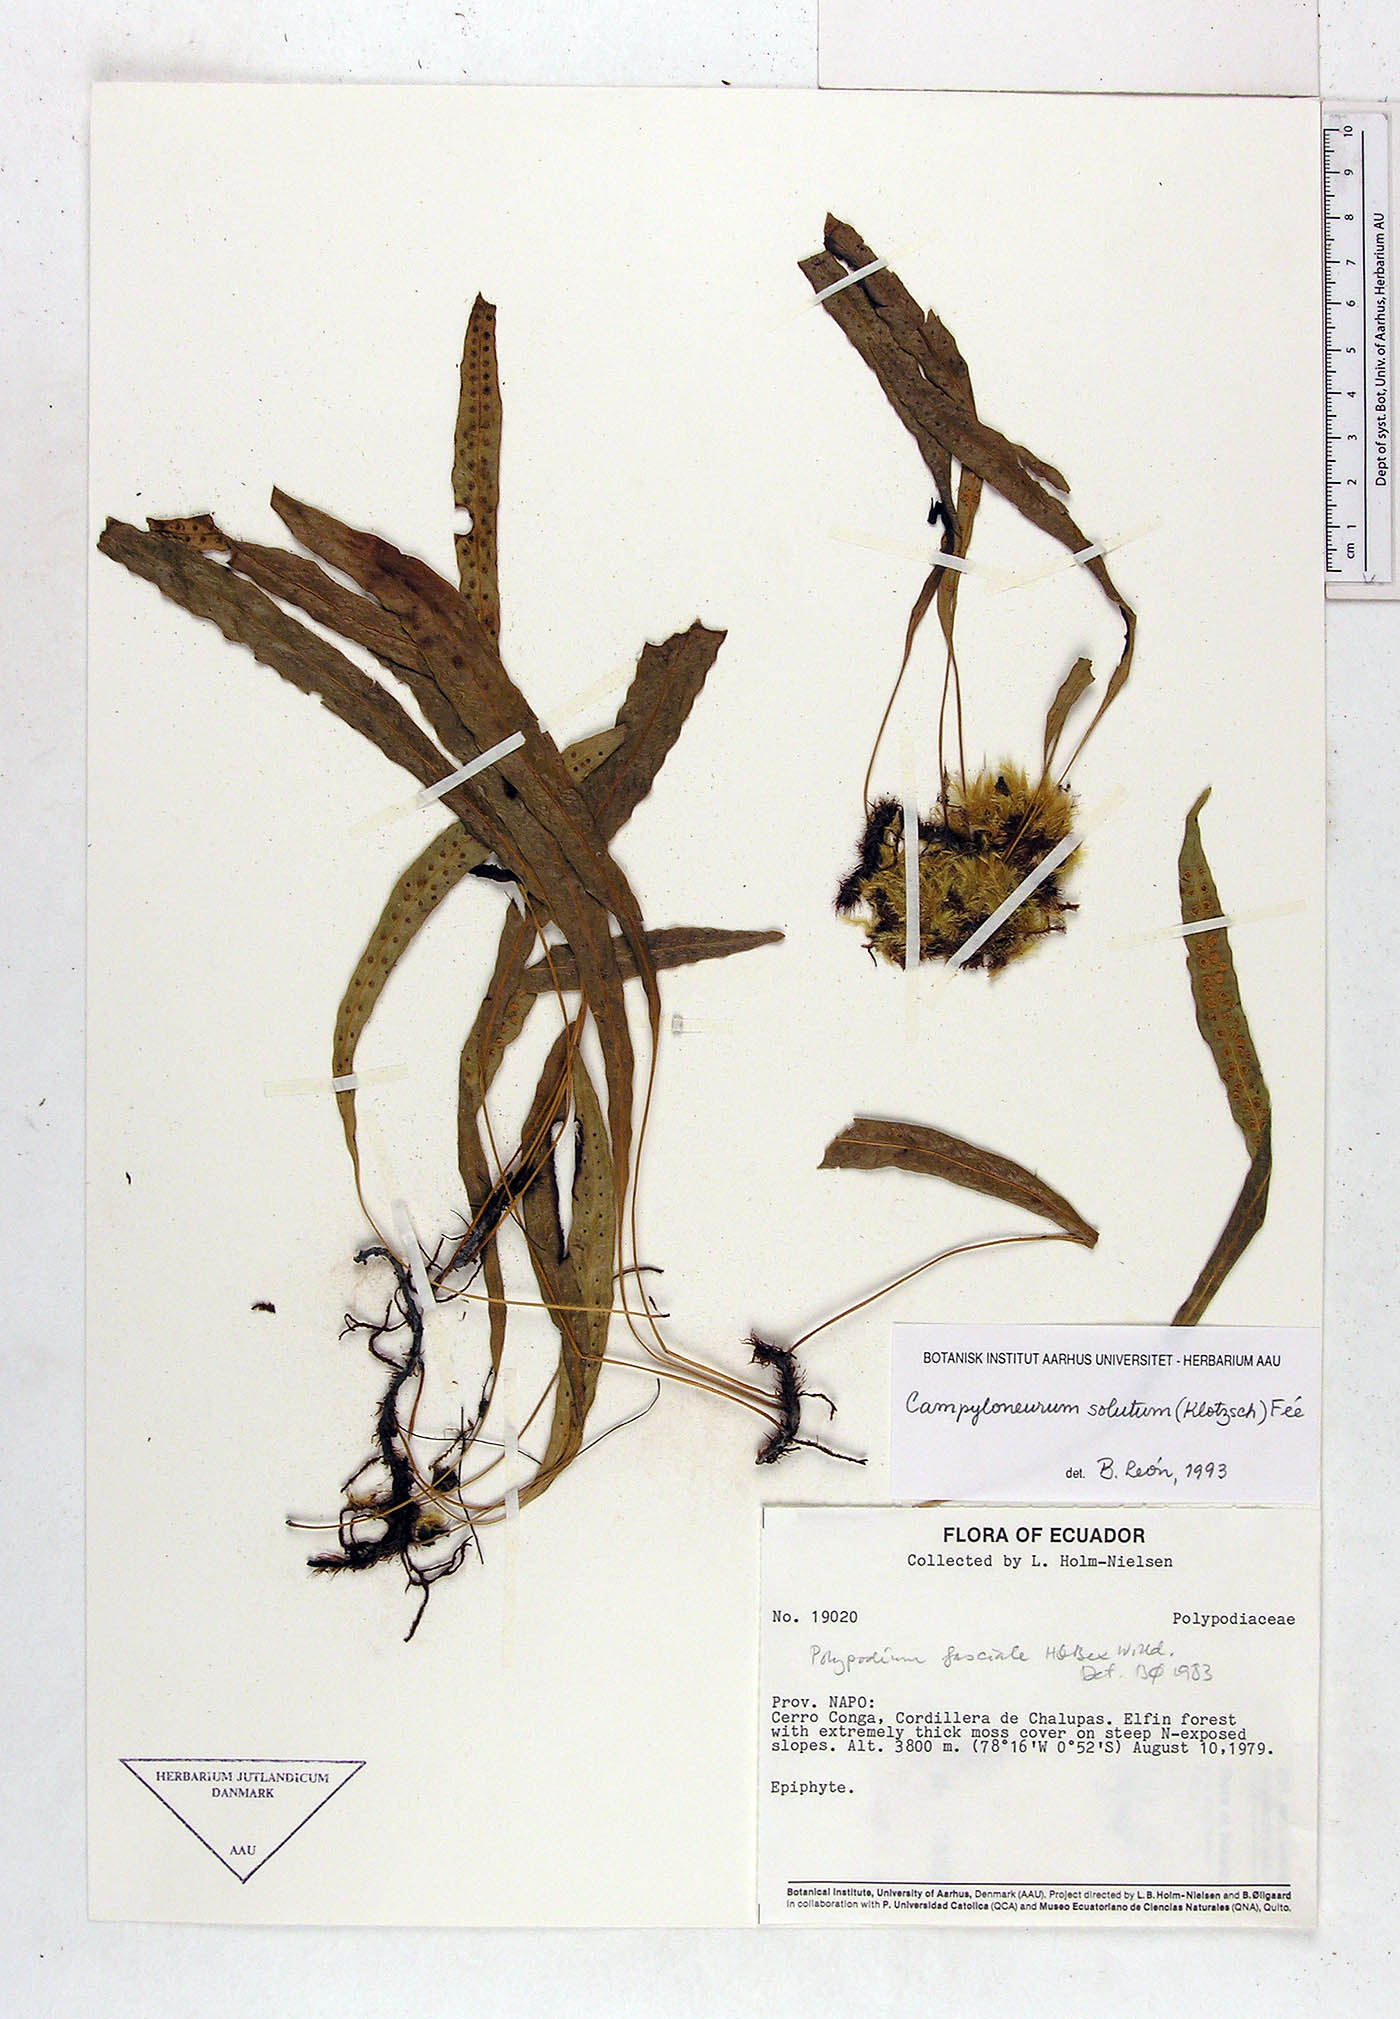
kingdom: Plantae
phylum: Tracheophyta
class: Polypodiopsida
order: Polypodiales
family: Polypodiaceae
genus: Campyloneurum
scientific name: Campyloneurum solutum
